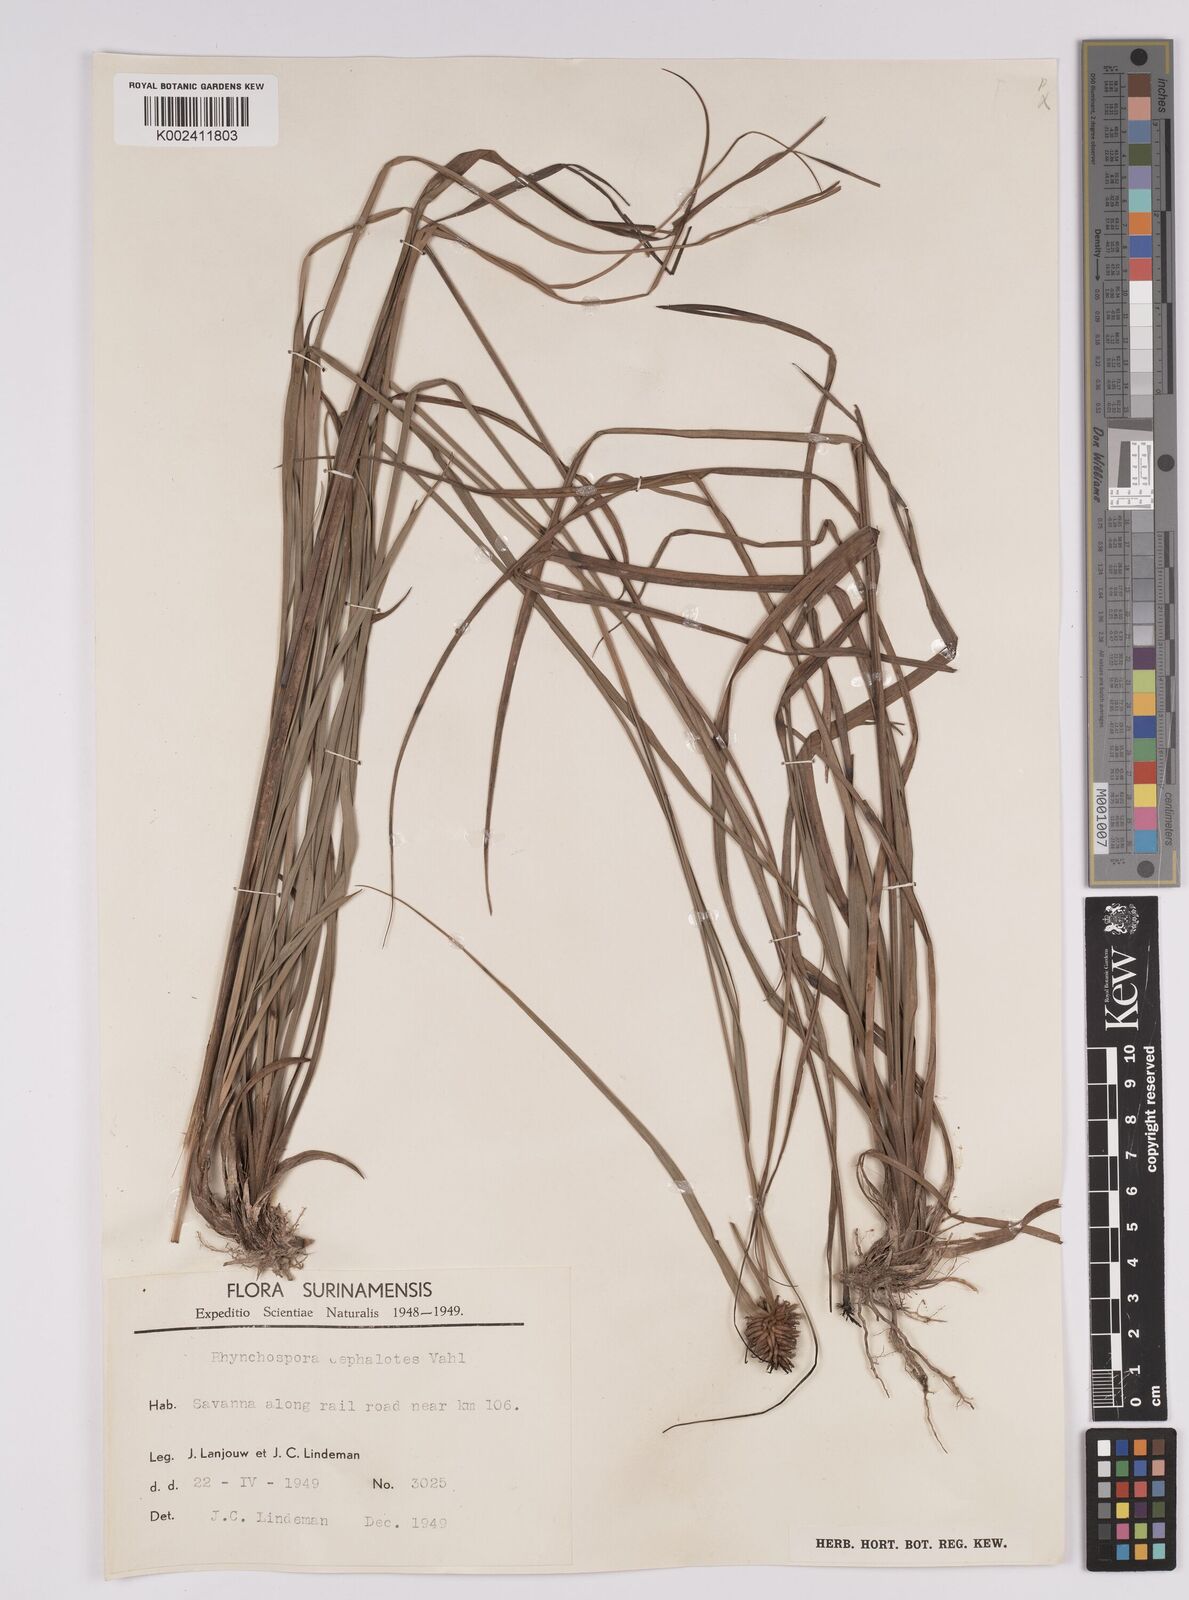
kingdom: Plantae
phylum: Tracheophyta
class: Liliopsida
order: Poales
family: Cyperaceae
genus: Rhynchospora
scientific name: Rhynchospora cephalotes
